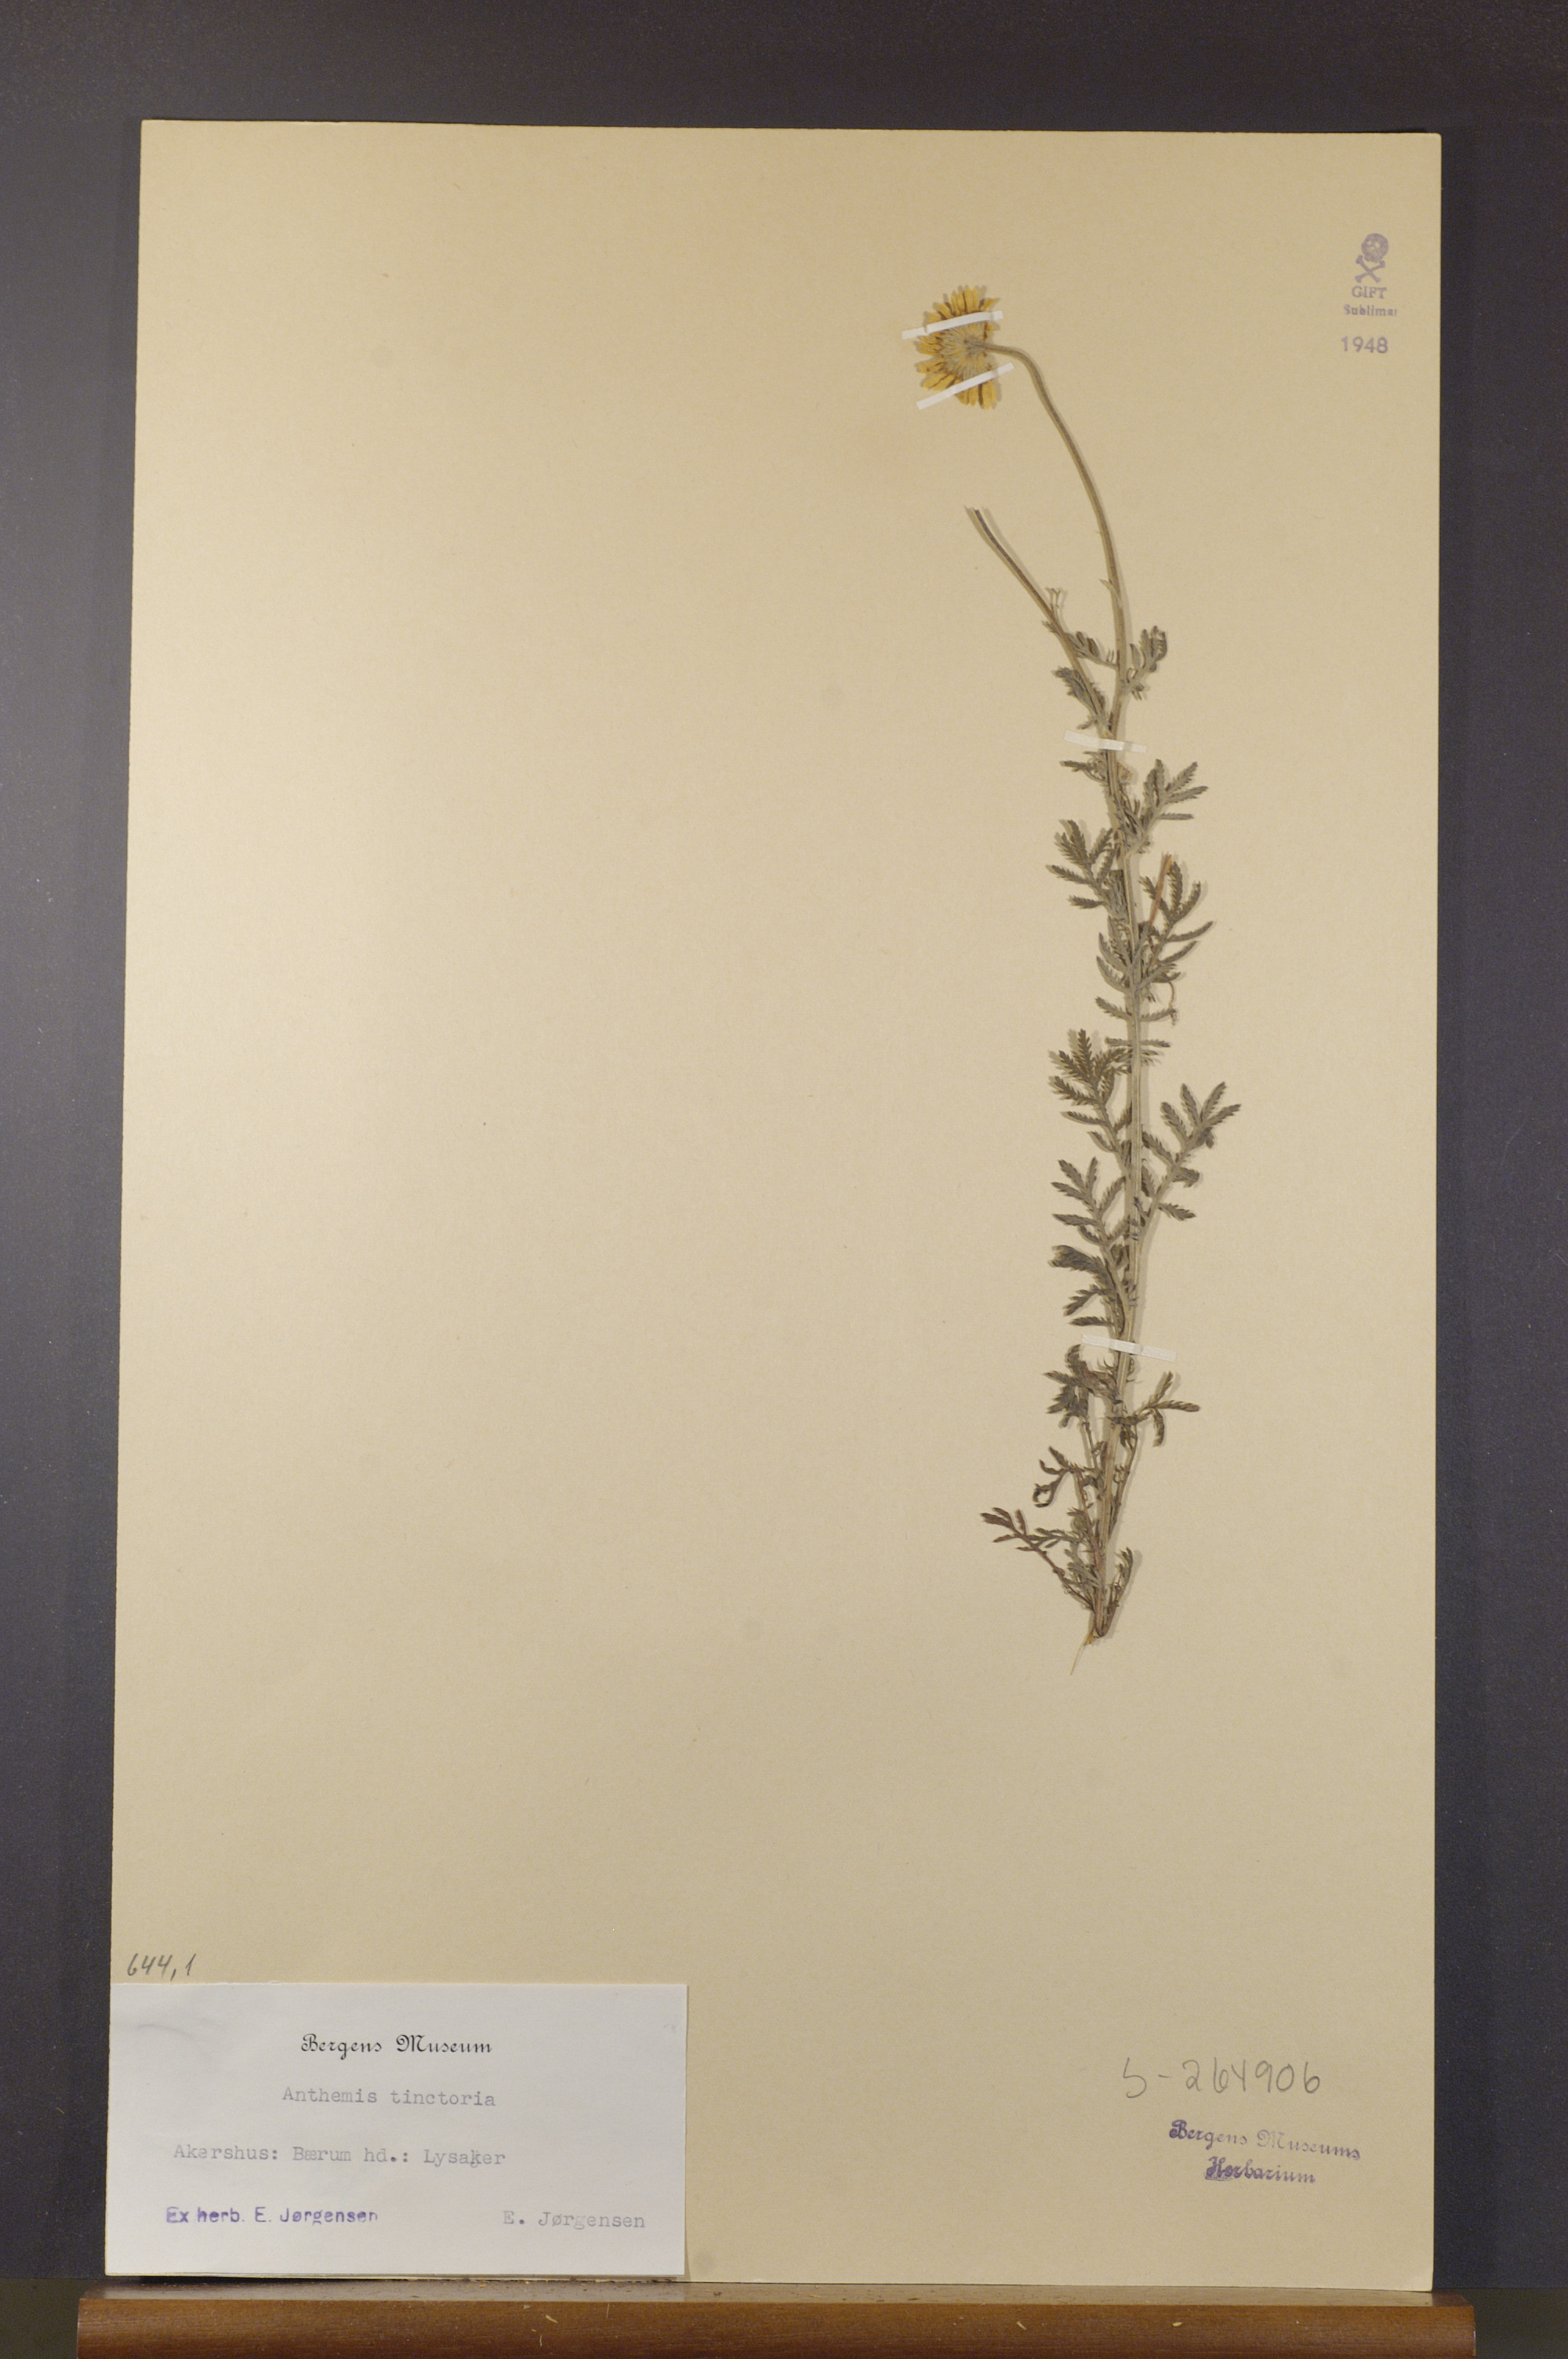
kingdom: Plantae
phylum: Tracheophyta
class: Magnoliopsida
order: Asterales
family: Asteraceae
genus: Cota
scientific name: Cota tinctoria
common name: Golden chamomile
